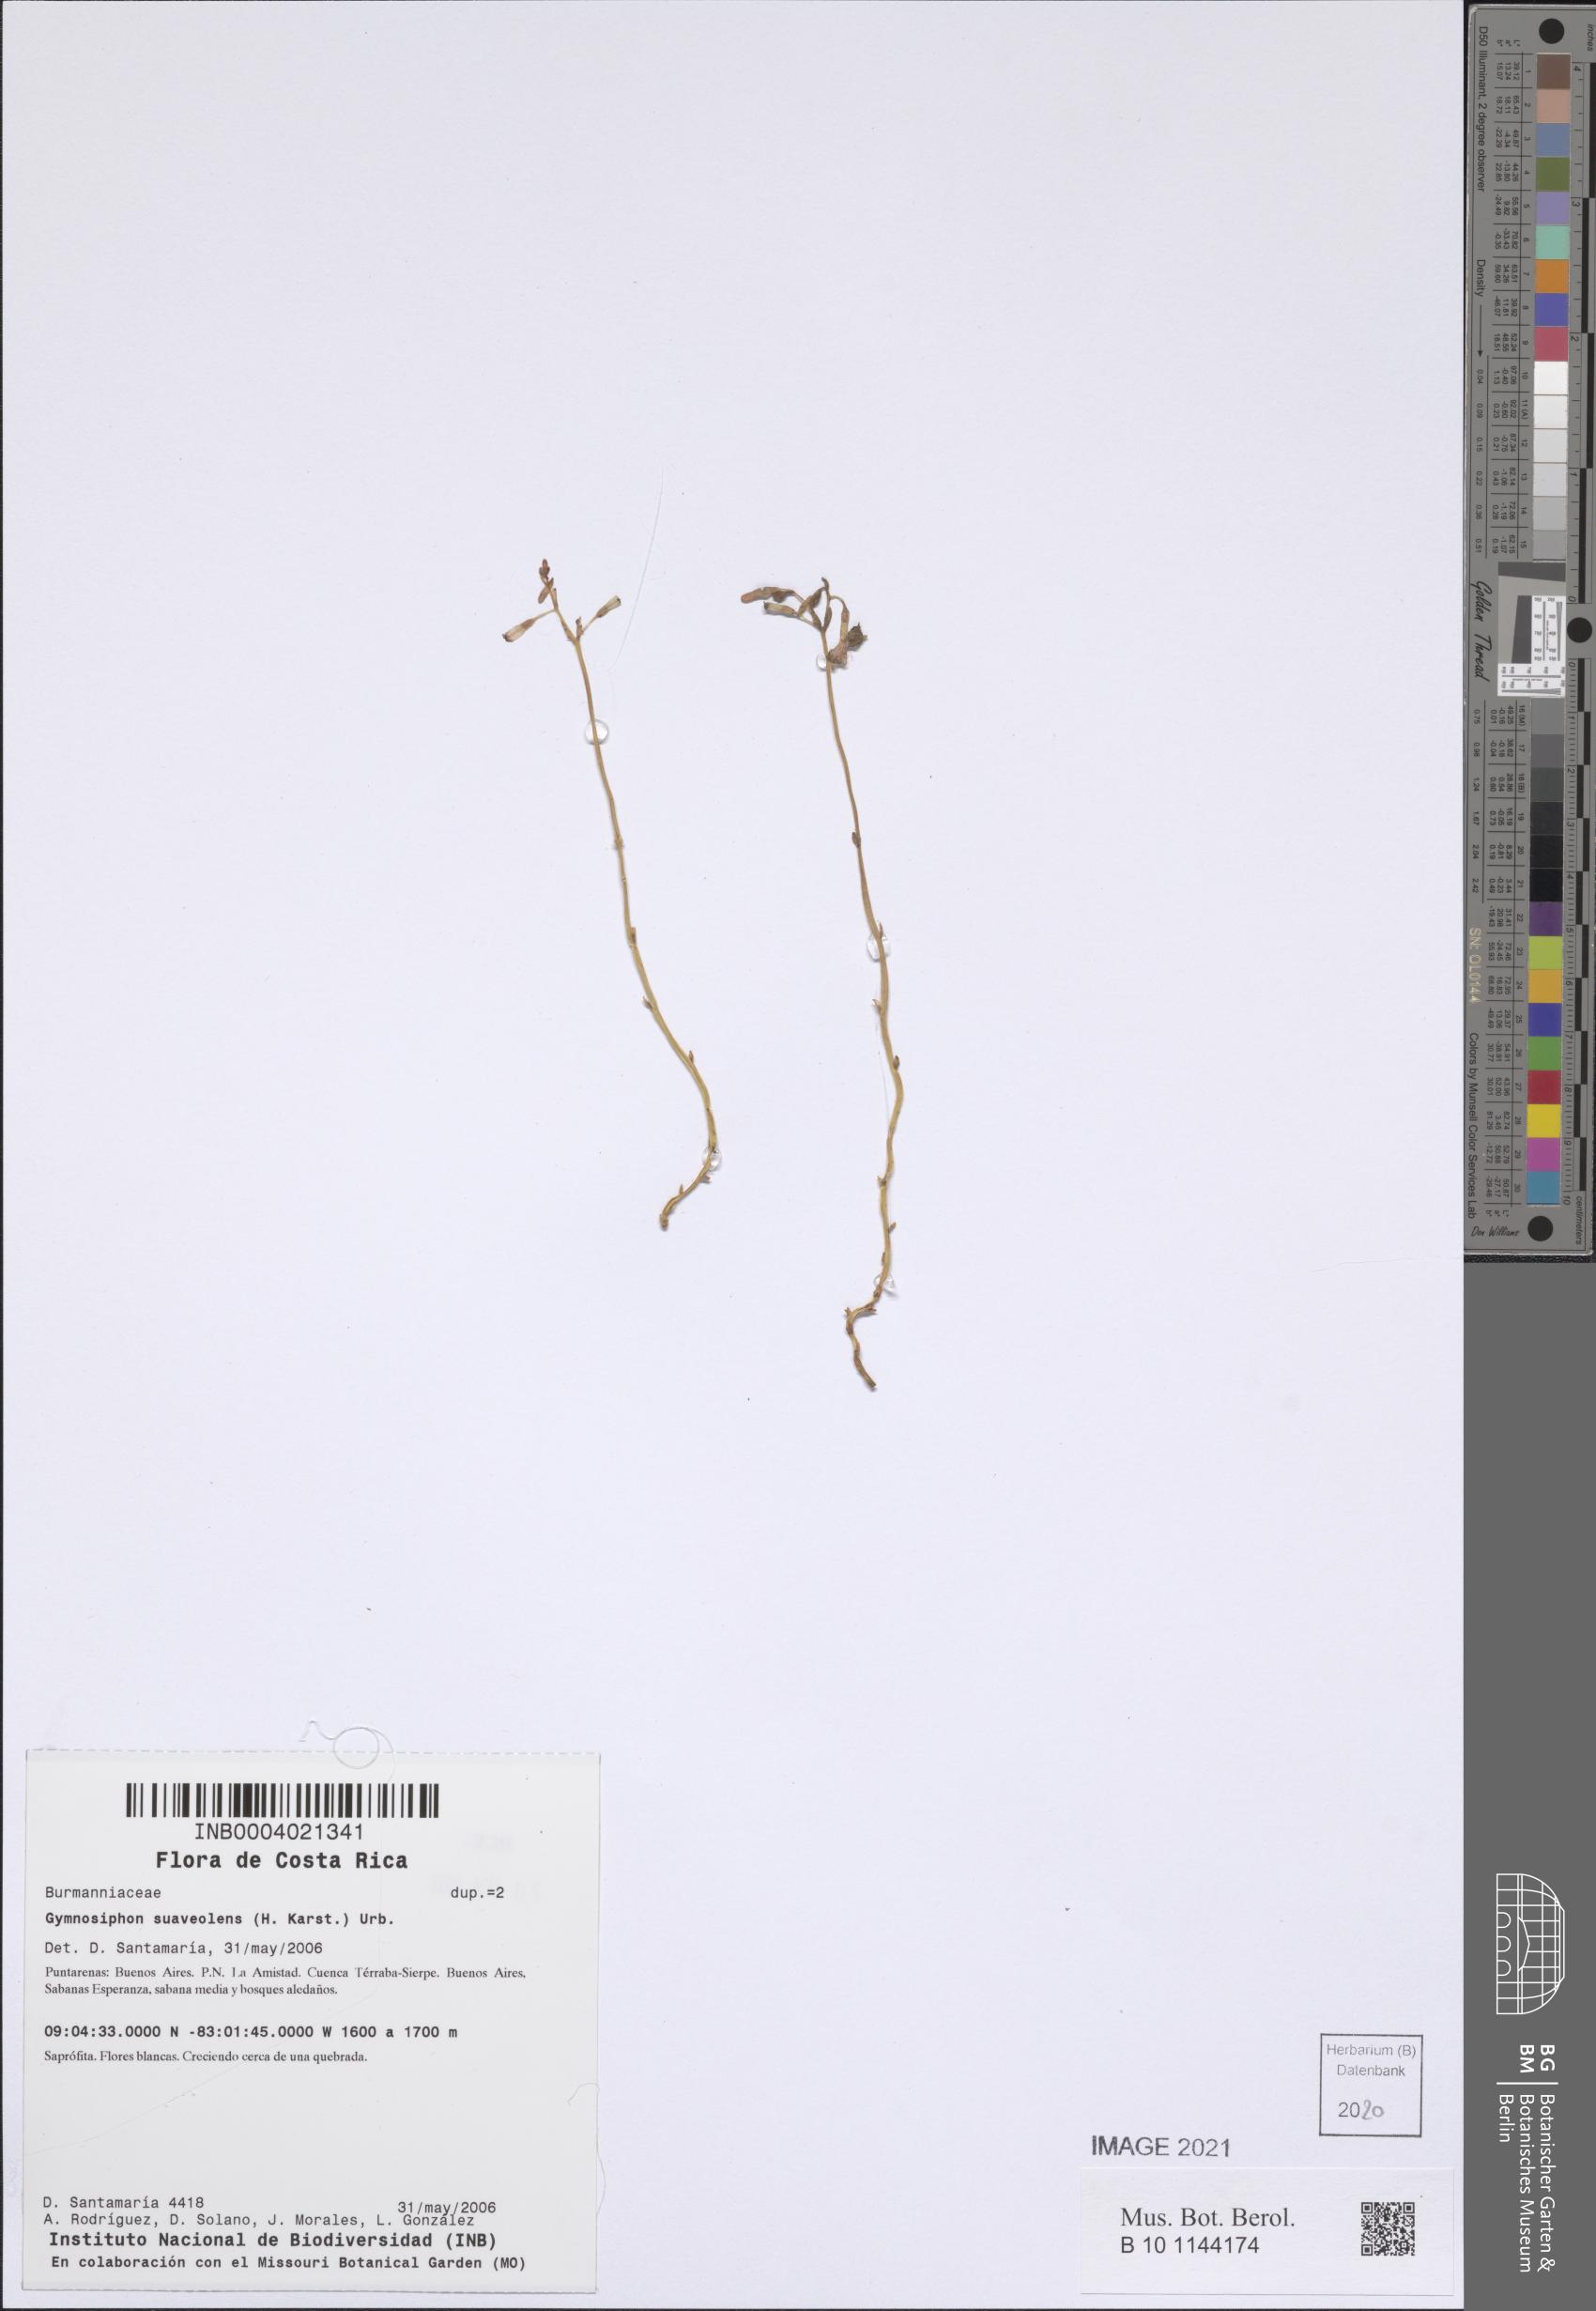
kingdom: Plantae
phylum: Tracheophyta
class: Liliopsida
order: Dioscoreales
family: Burmanniaceae
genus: Gymnosiphon
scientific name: Gymnosiphon suaveolens
